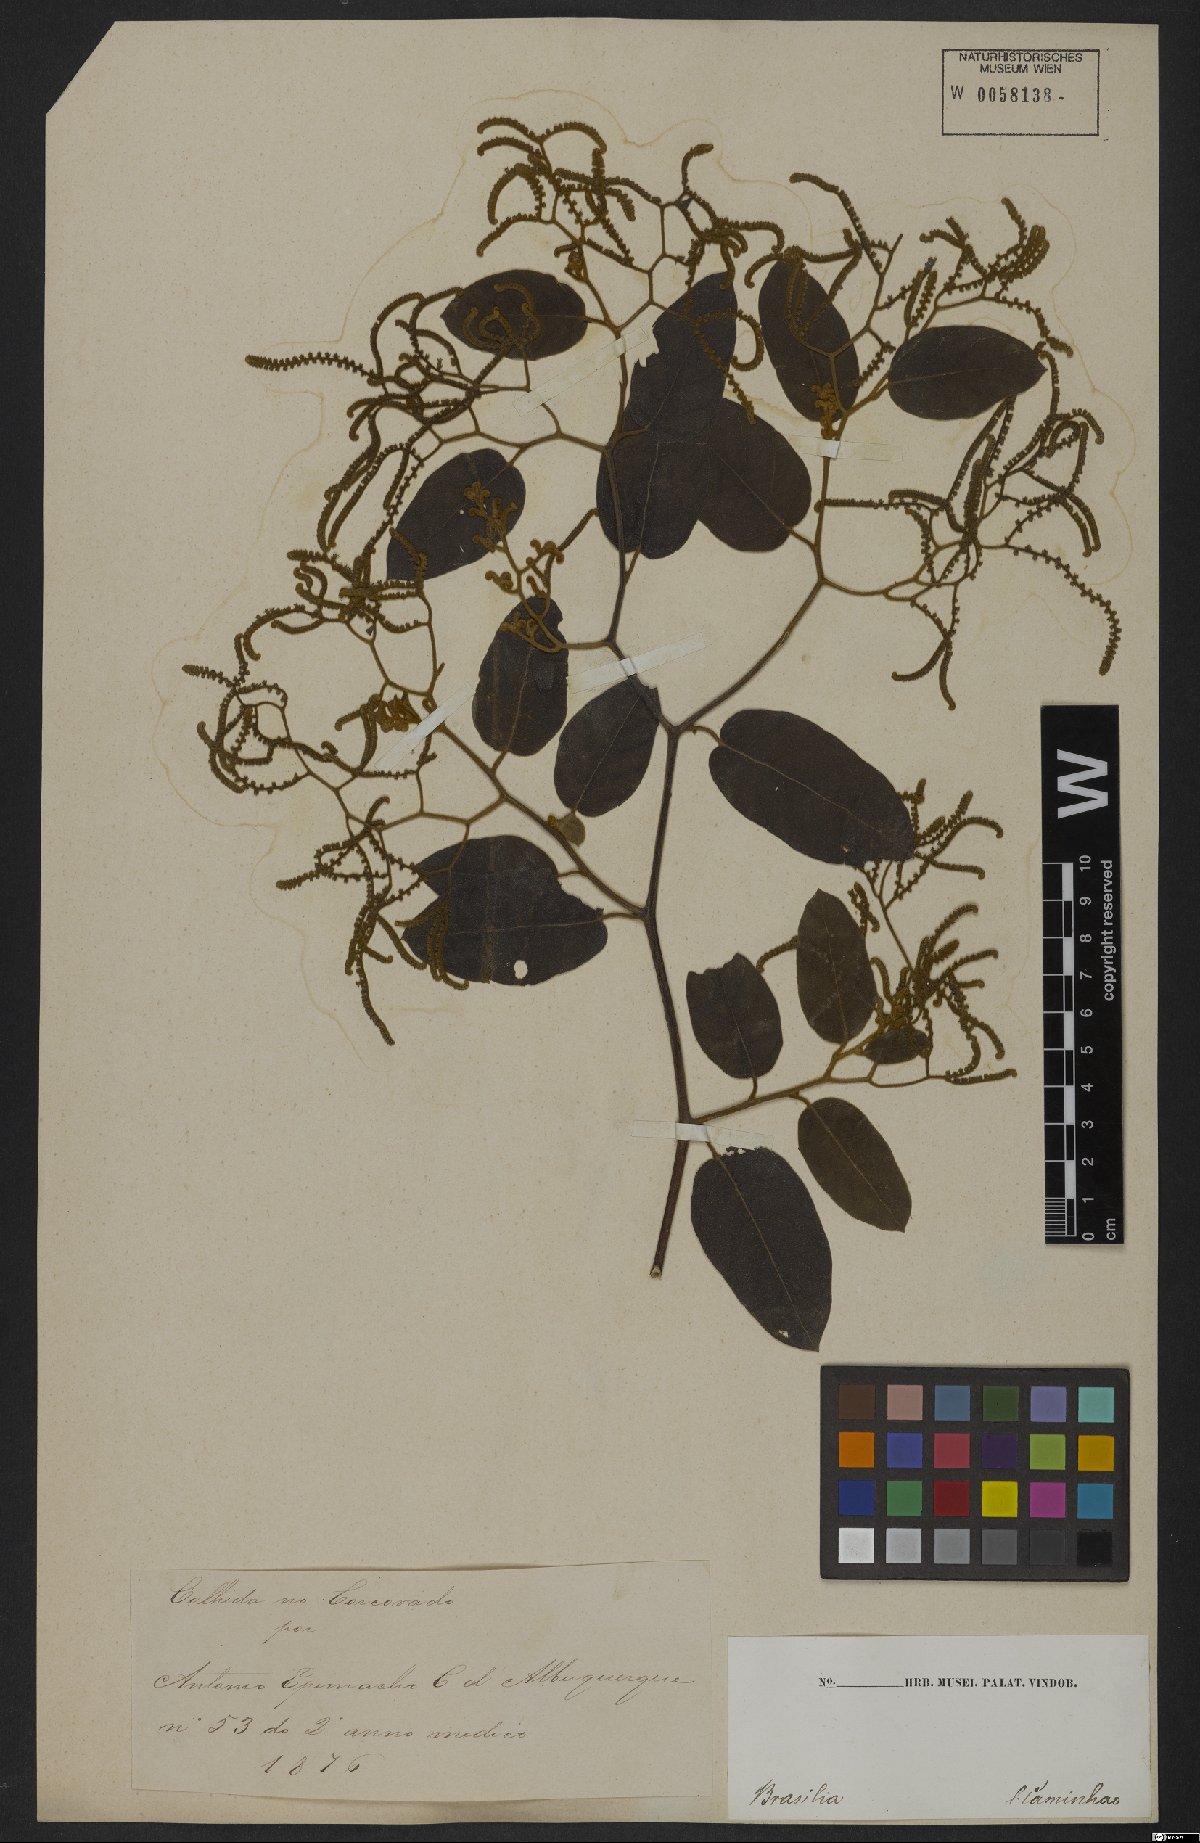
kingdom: Plantae
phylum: Tracheophyta
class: Magnoliopsida
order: Boraginales
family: Heliotropiaceae
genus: Myriopus
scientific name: Myriopus paniculatus
